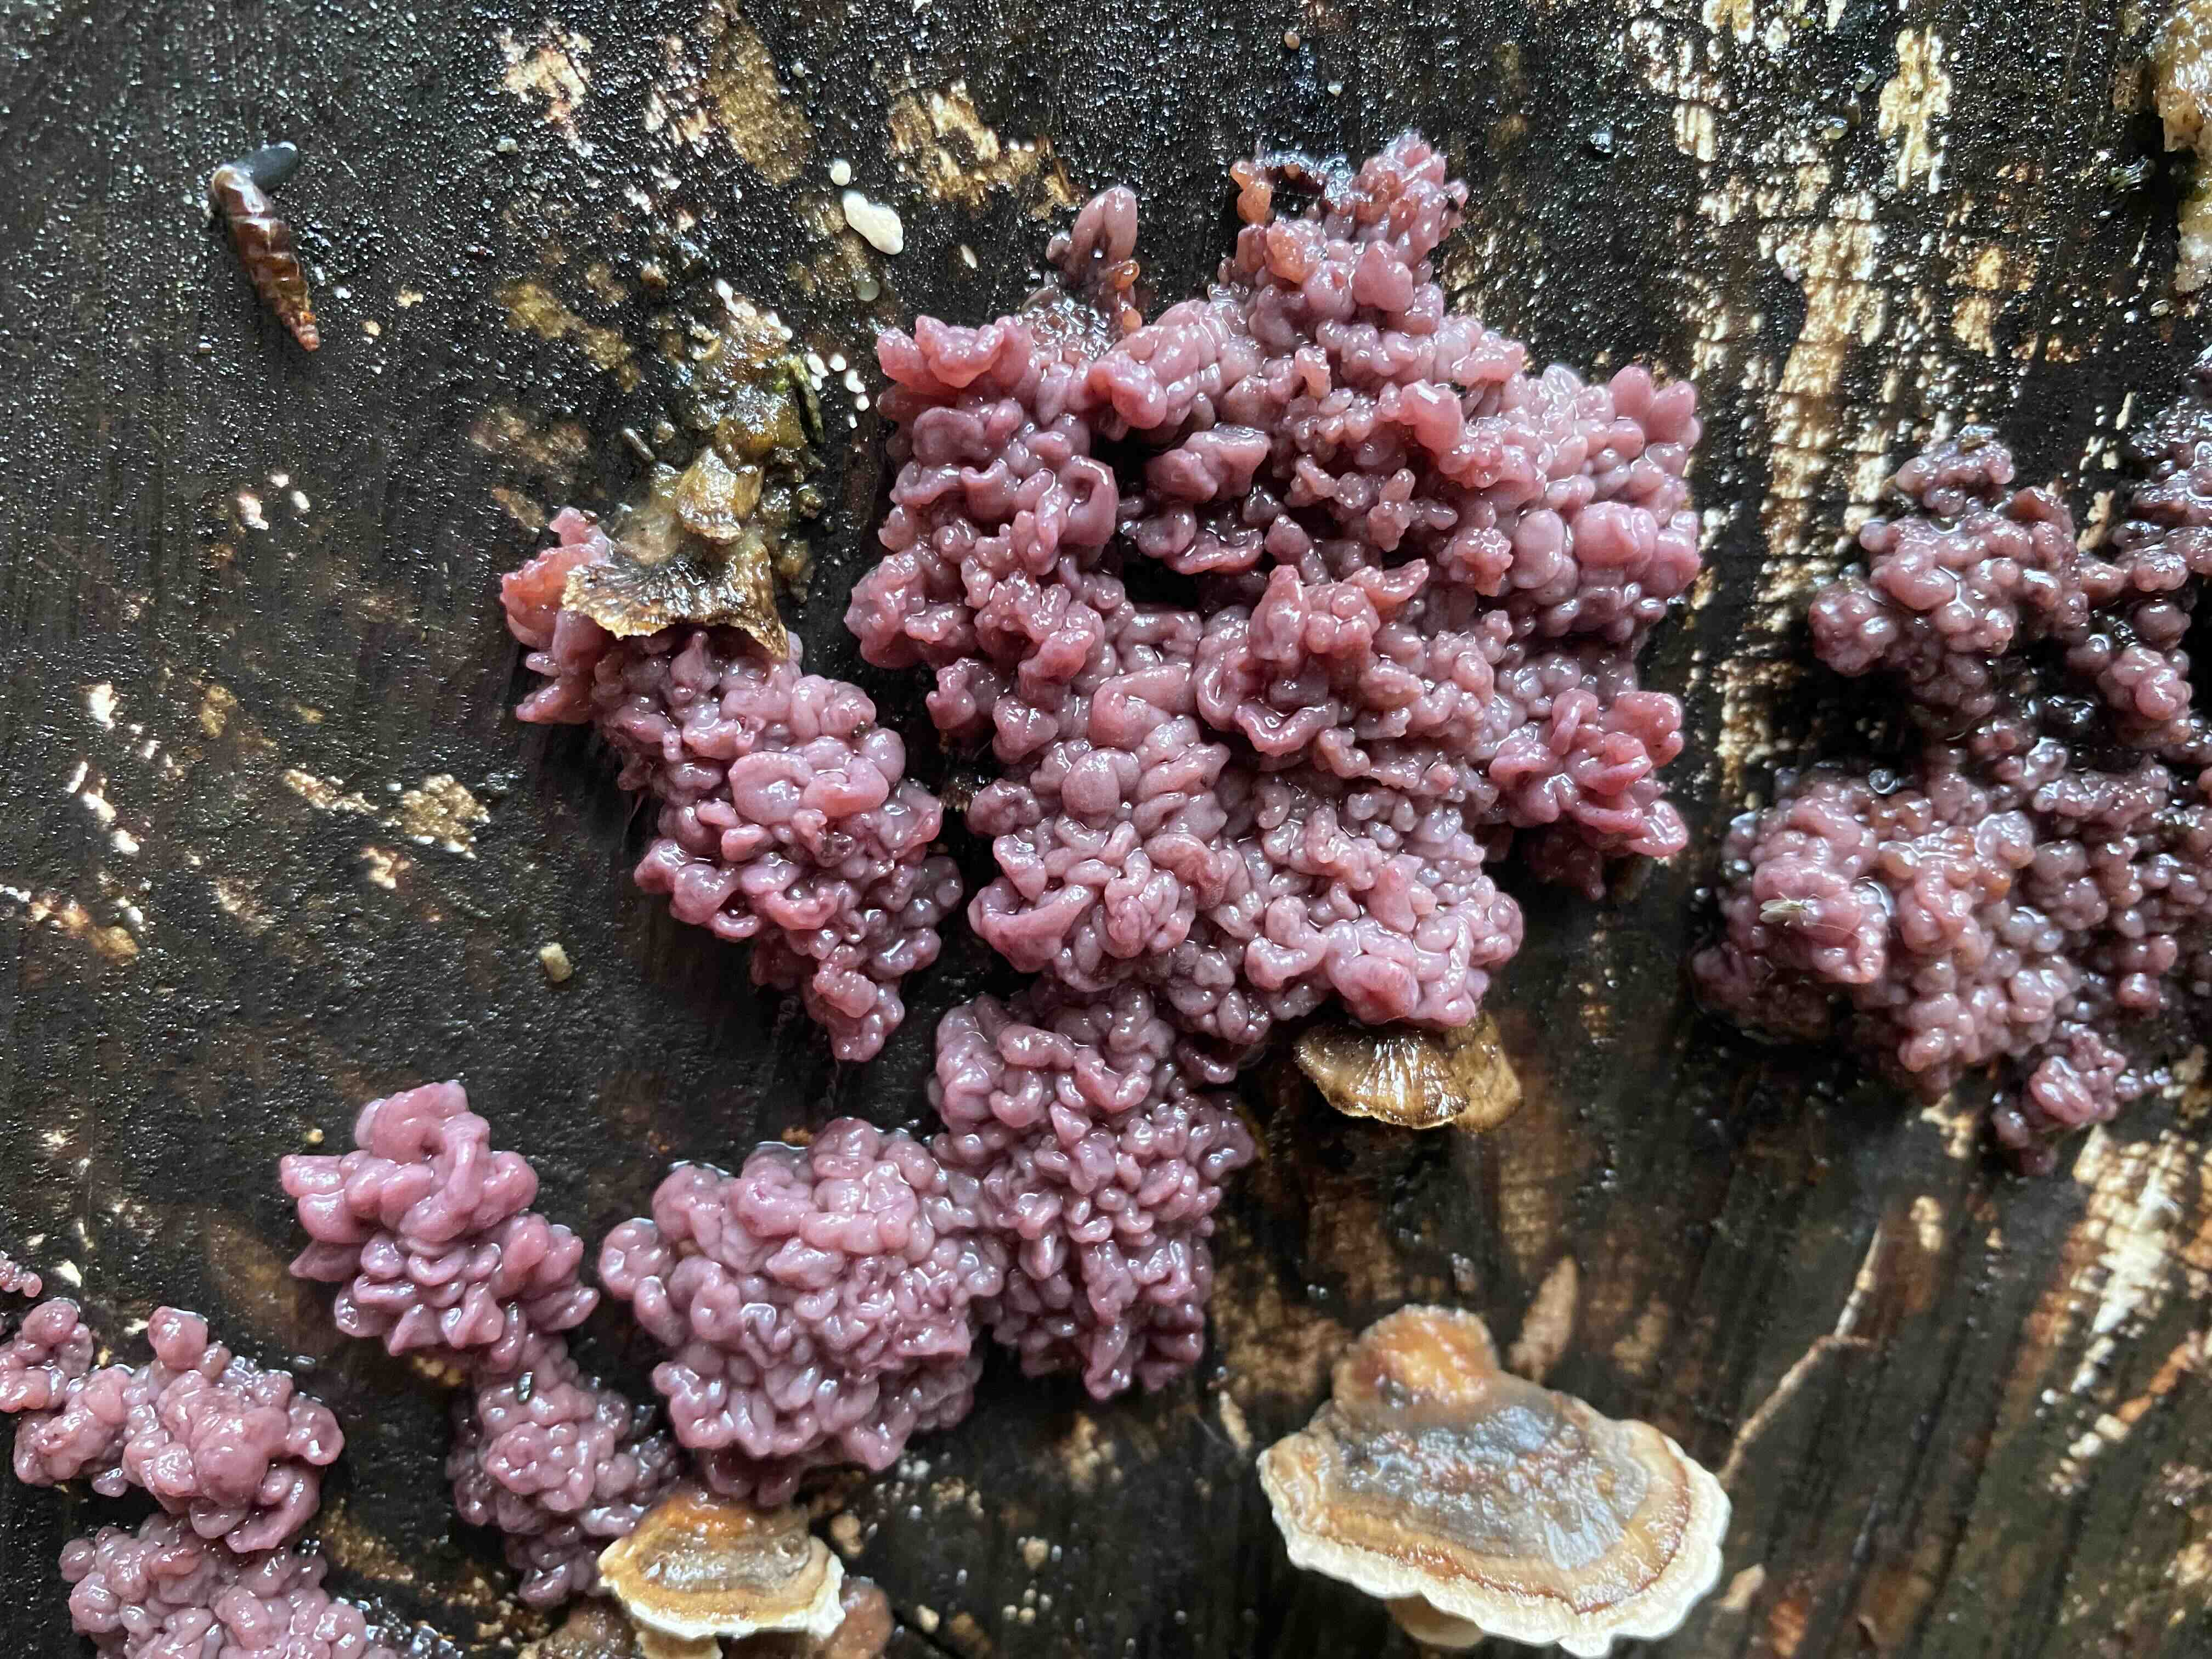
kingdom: Fungi
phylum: Ascomycota
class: Leotiomycetes
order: Helotiales
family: Gelatinodiscaceae
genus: Ascocoryne
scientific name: Ascocoryne sarcoides
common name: rødlilla sejskive
